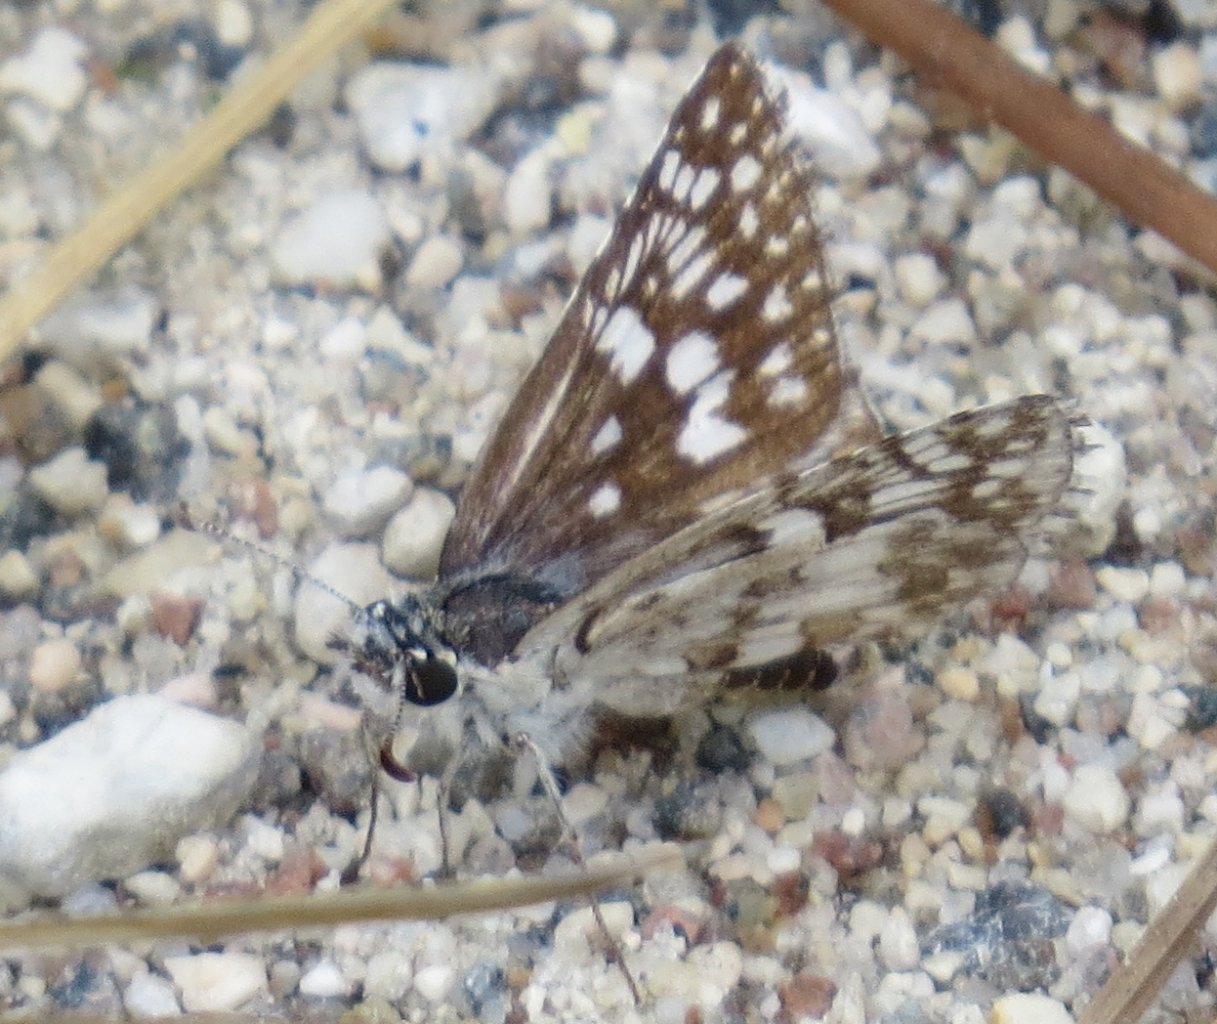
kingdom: Animalia
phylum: Arthropoda
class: Insecta
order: Lepidoptera
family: Hesperiidae
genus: Pyrgus
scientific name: Pyrgus oileus
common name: Tropical Checkered-Skipper
